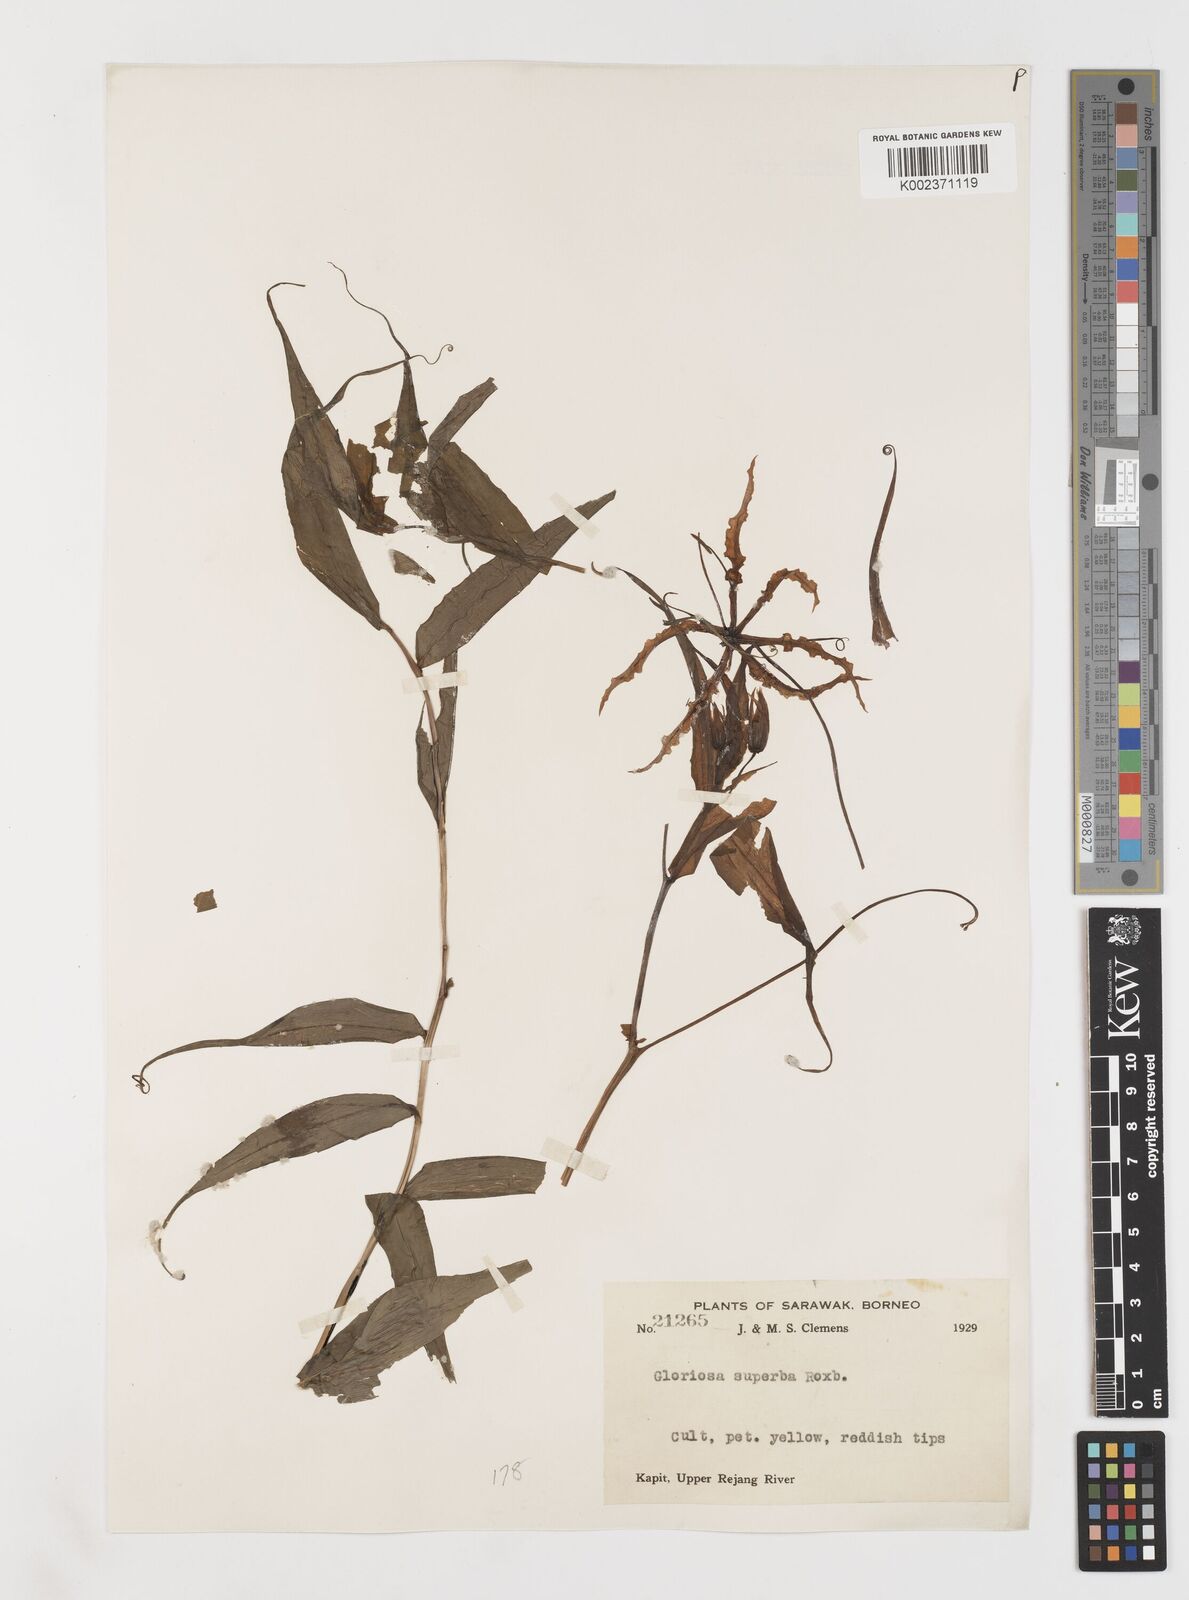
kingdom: Plantae
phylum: Tracheophyta
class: Liliopsida
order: Liliales
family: Colchicaceae
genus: Gloriosa
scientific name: Gloriosa superba
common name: Flame lily
